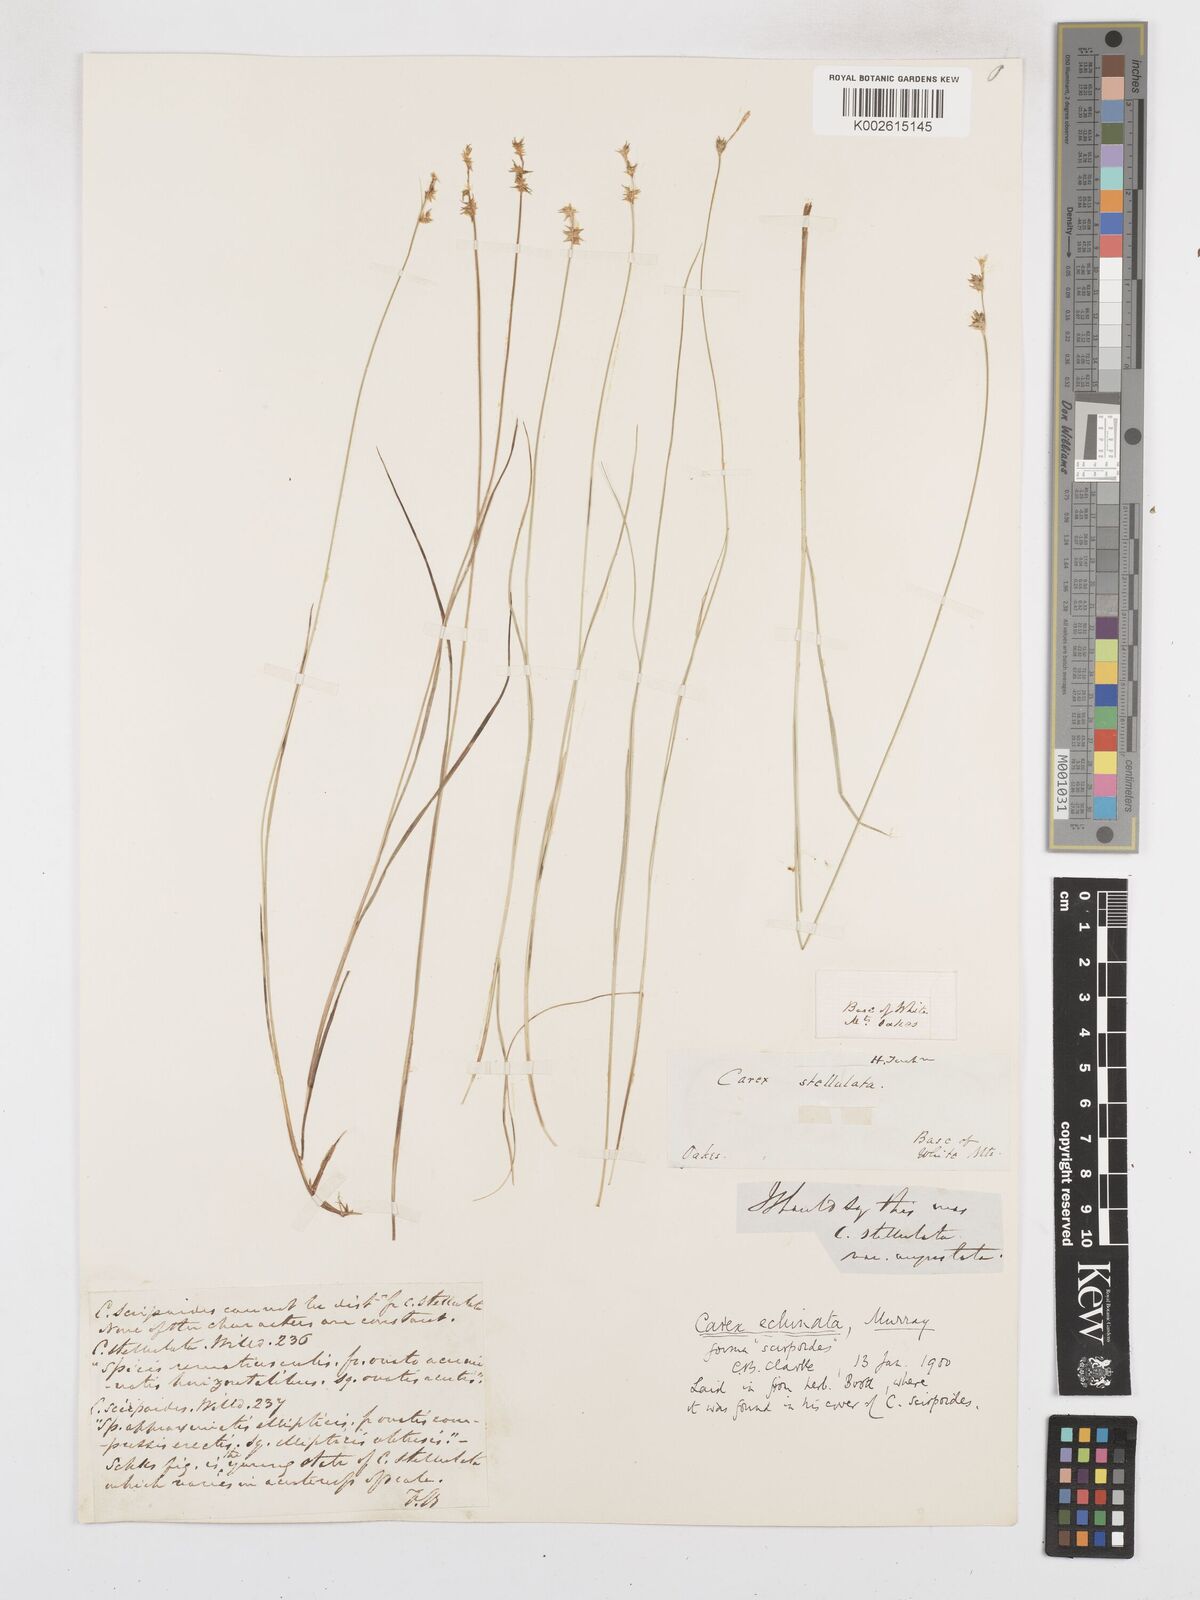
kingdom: Plantae
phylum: Tracheophyta
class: Liliopsida
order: Poales
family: Cyperaceae
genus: Carex
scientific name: Carex echinata
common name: Star sedge
